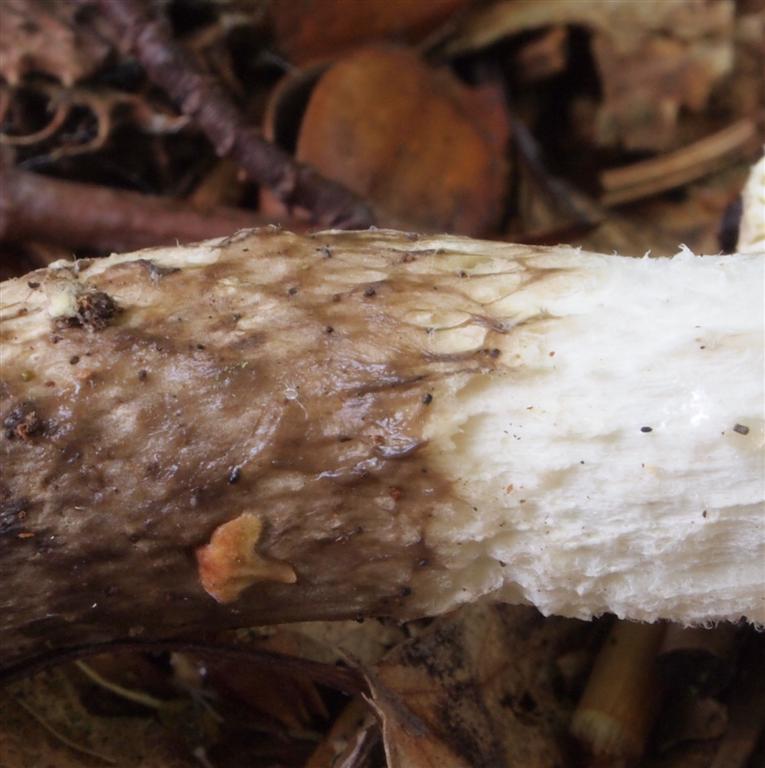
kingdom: Fungi
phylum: Basidiomycota
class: Agaricomycetes
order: Agaricales
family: Hygrophoraceae
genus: Hygrophorus
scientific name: Hygrophorus glutinifer
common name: tvefarvet sneglehat
